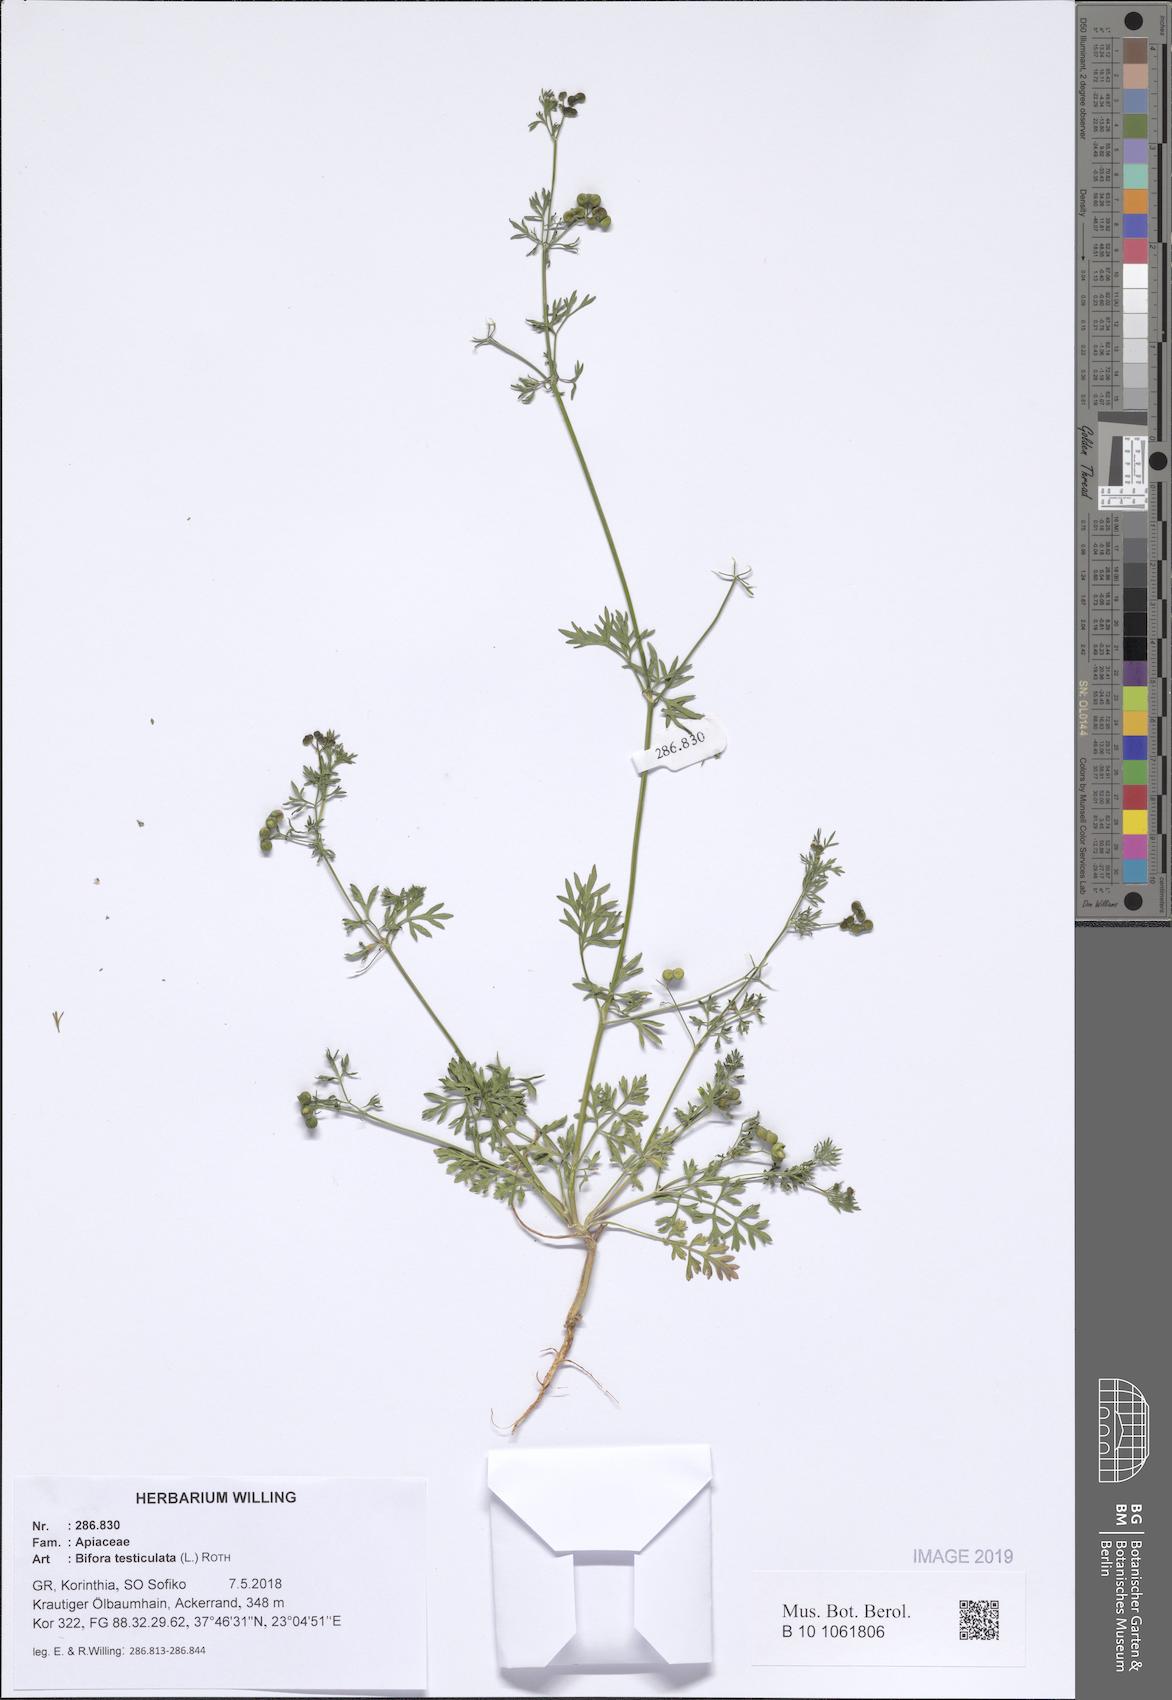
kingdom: Plantae
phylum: Tracheophyta
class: Magnoliopsida
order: Apiales
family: Apiaceae
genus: Bifora
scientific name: Bifora testiculata
